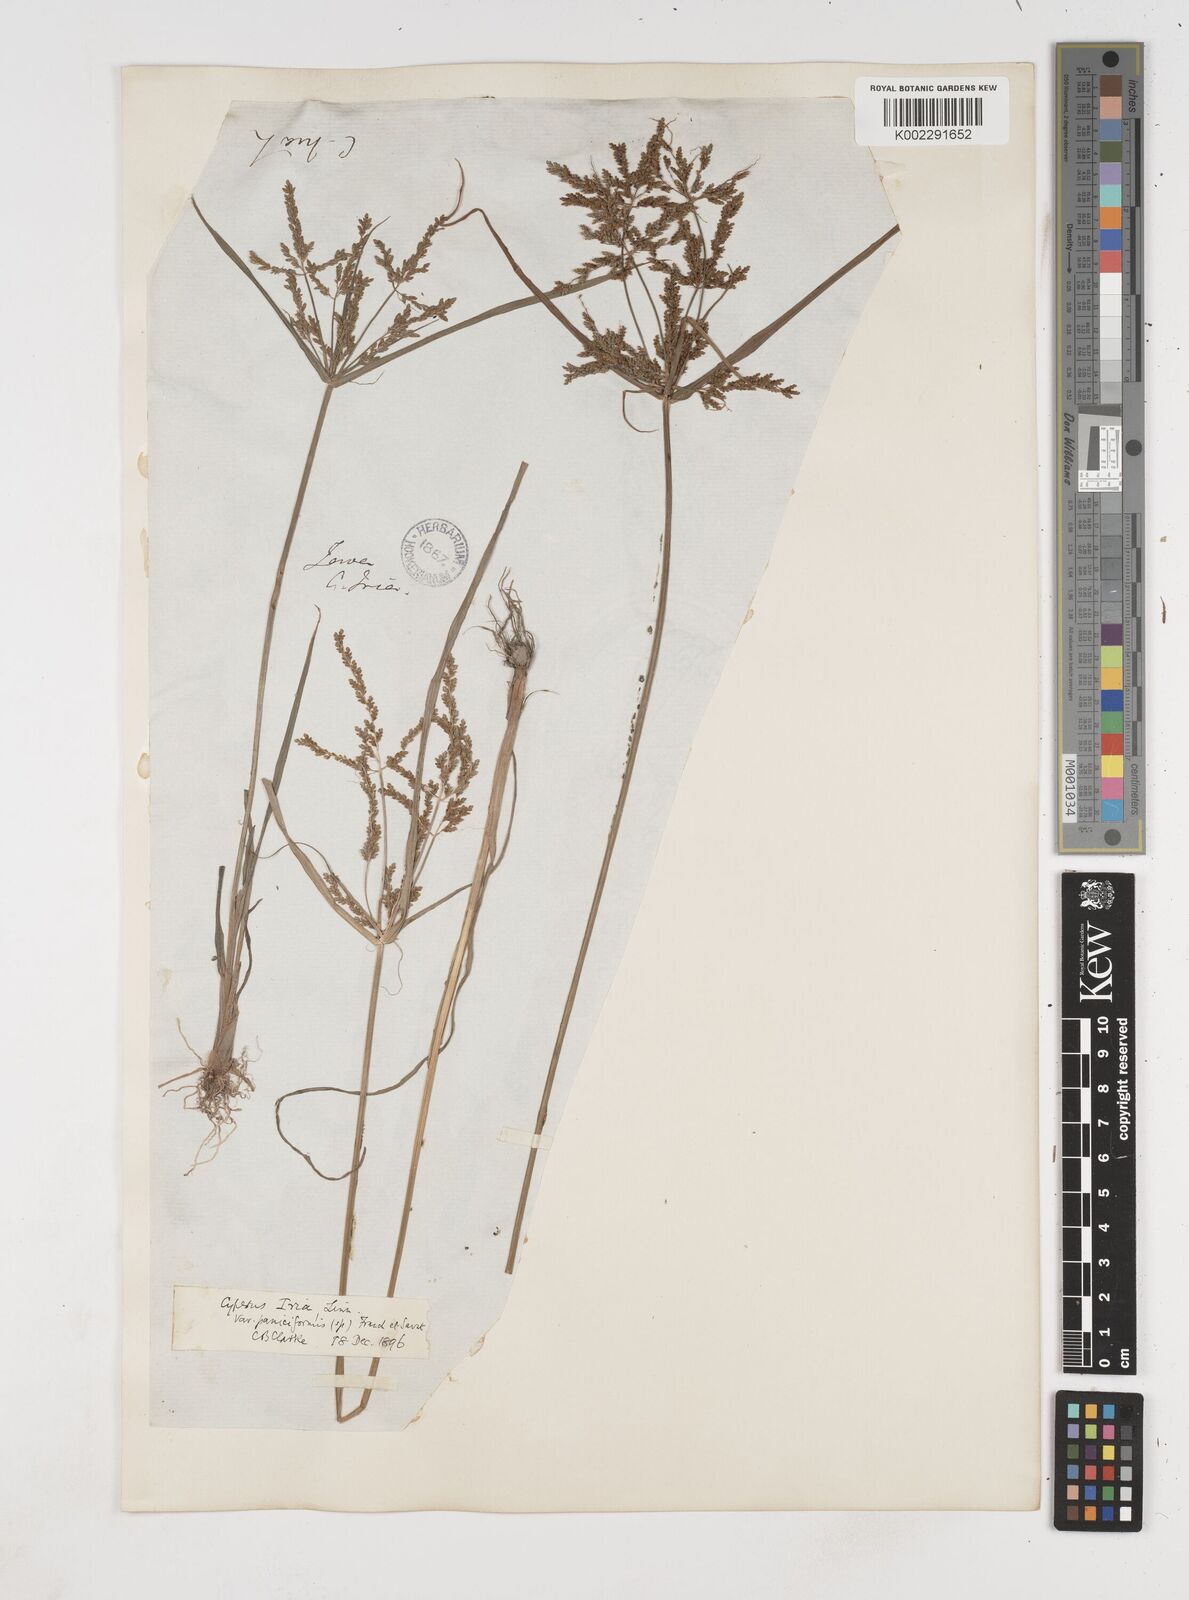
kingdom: Plantae
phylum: Tracheophyta
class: Liliopsida
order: Poales
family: Cyperaceae
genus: Cyperus
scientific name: Cyperus microiria
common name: Asian flatsedge
